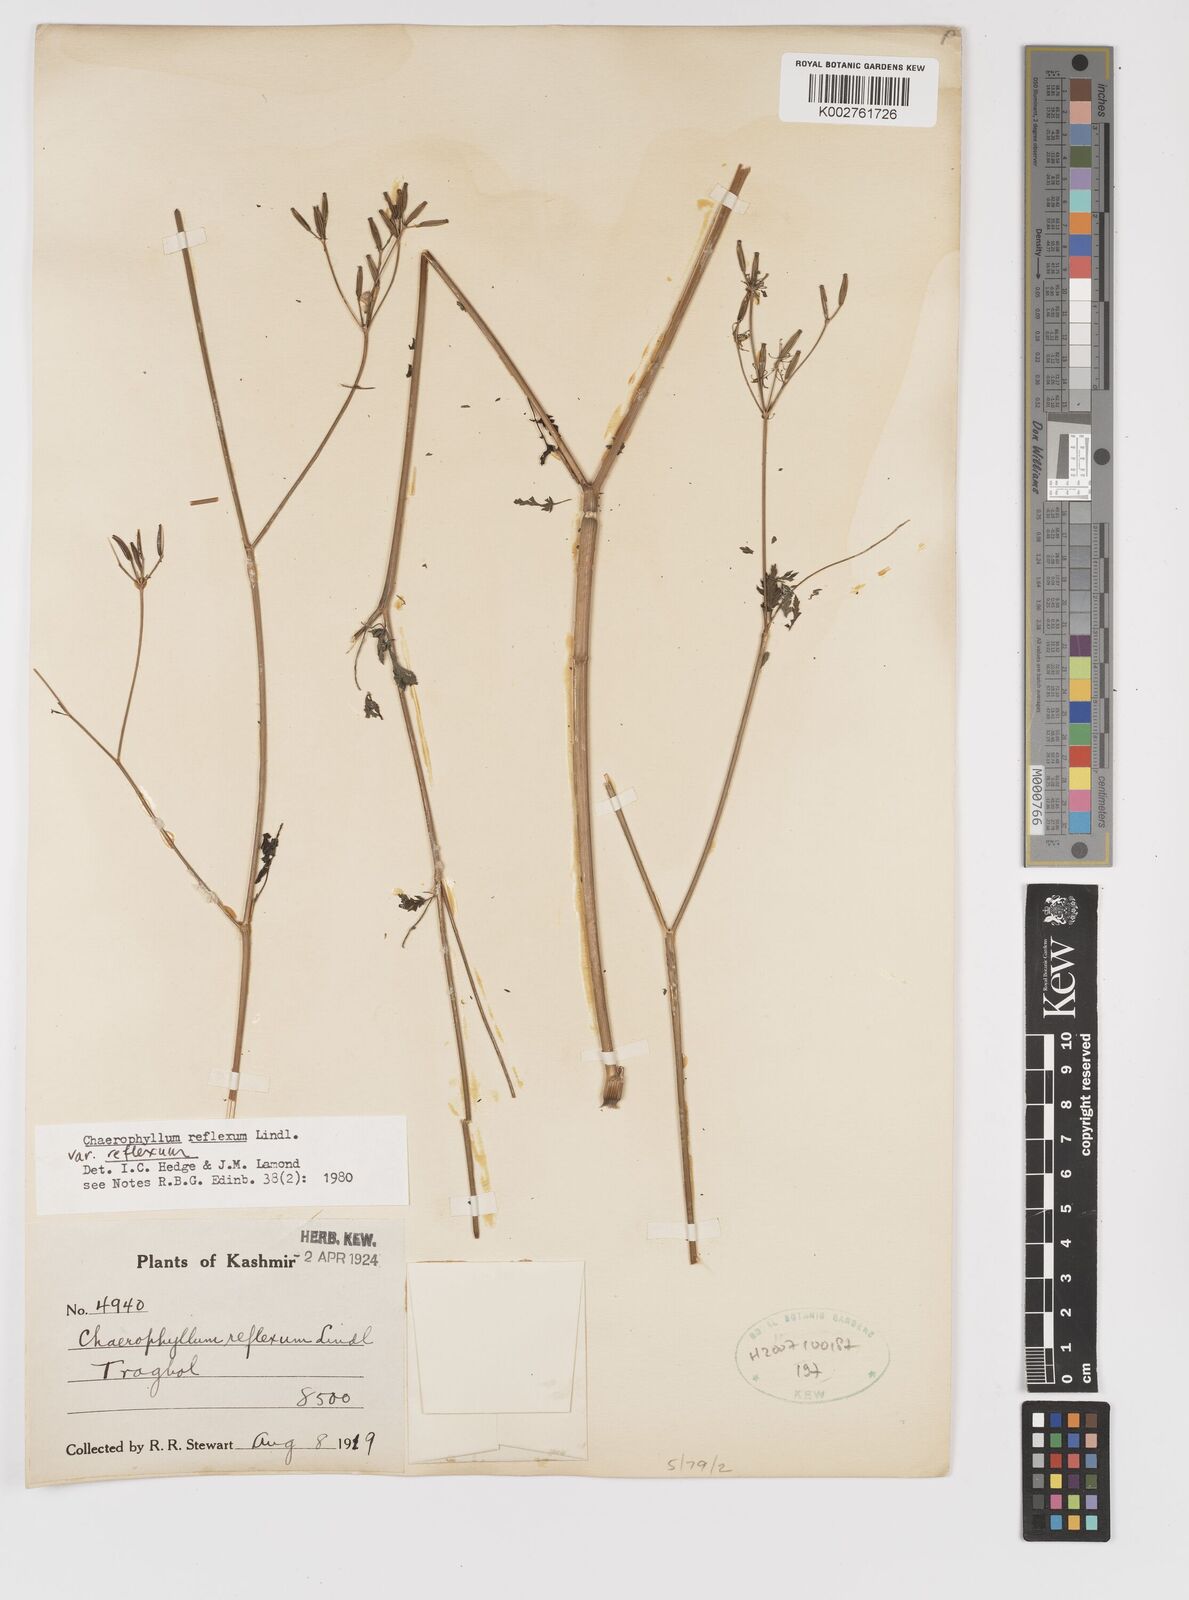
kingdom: Plantae
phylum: Tracheophyta
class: Magnoliopsida
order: Apiales
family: Apiaceae
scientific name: Apiaceae
